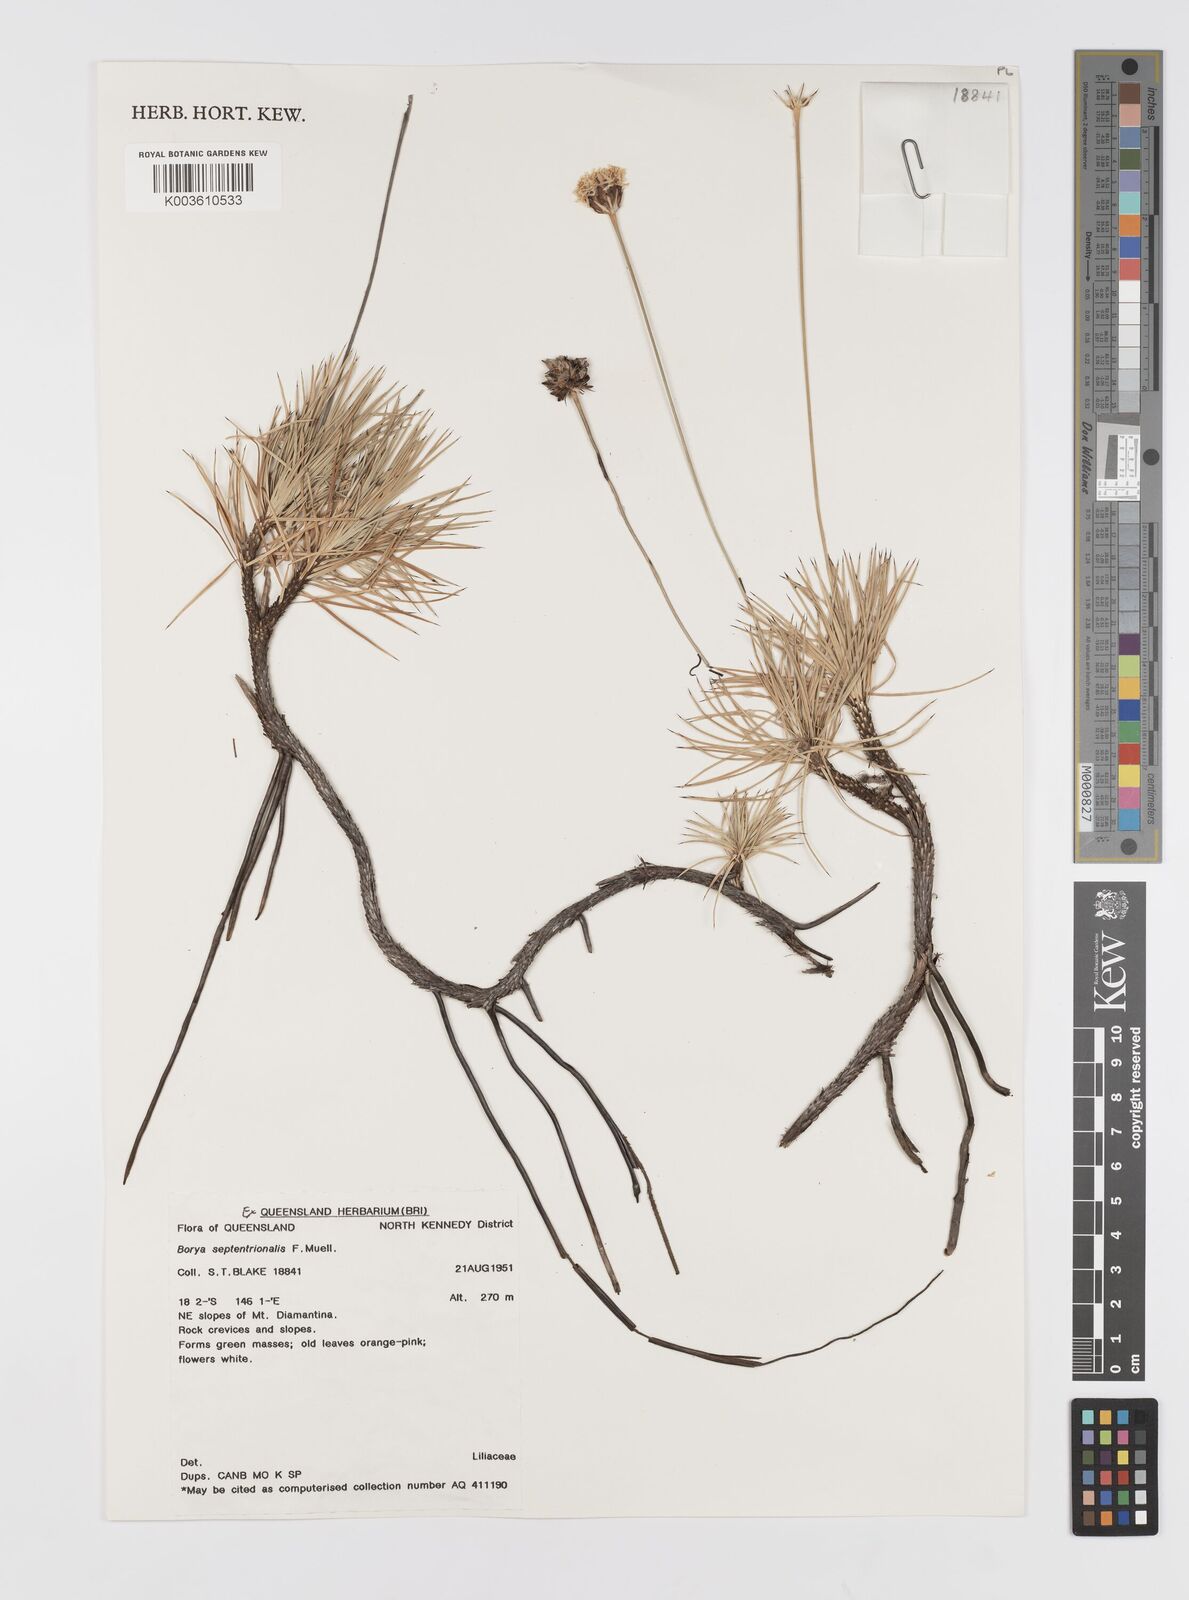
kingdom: Plantae
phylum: Tracheophyta
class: Liliopsida
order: Asparagales
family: Boryaceae
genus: Borya
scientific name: Borya septentrionalis
